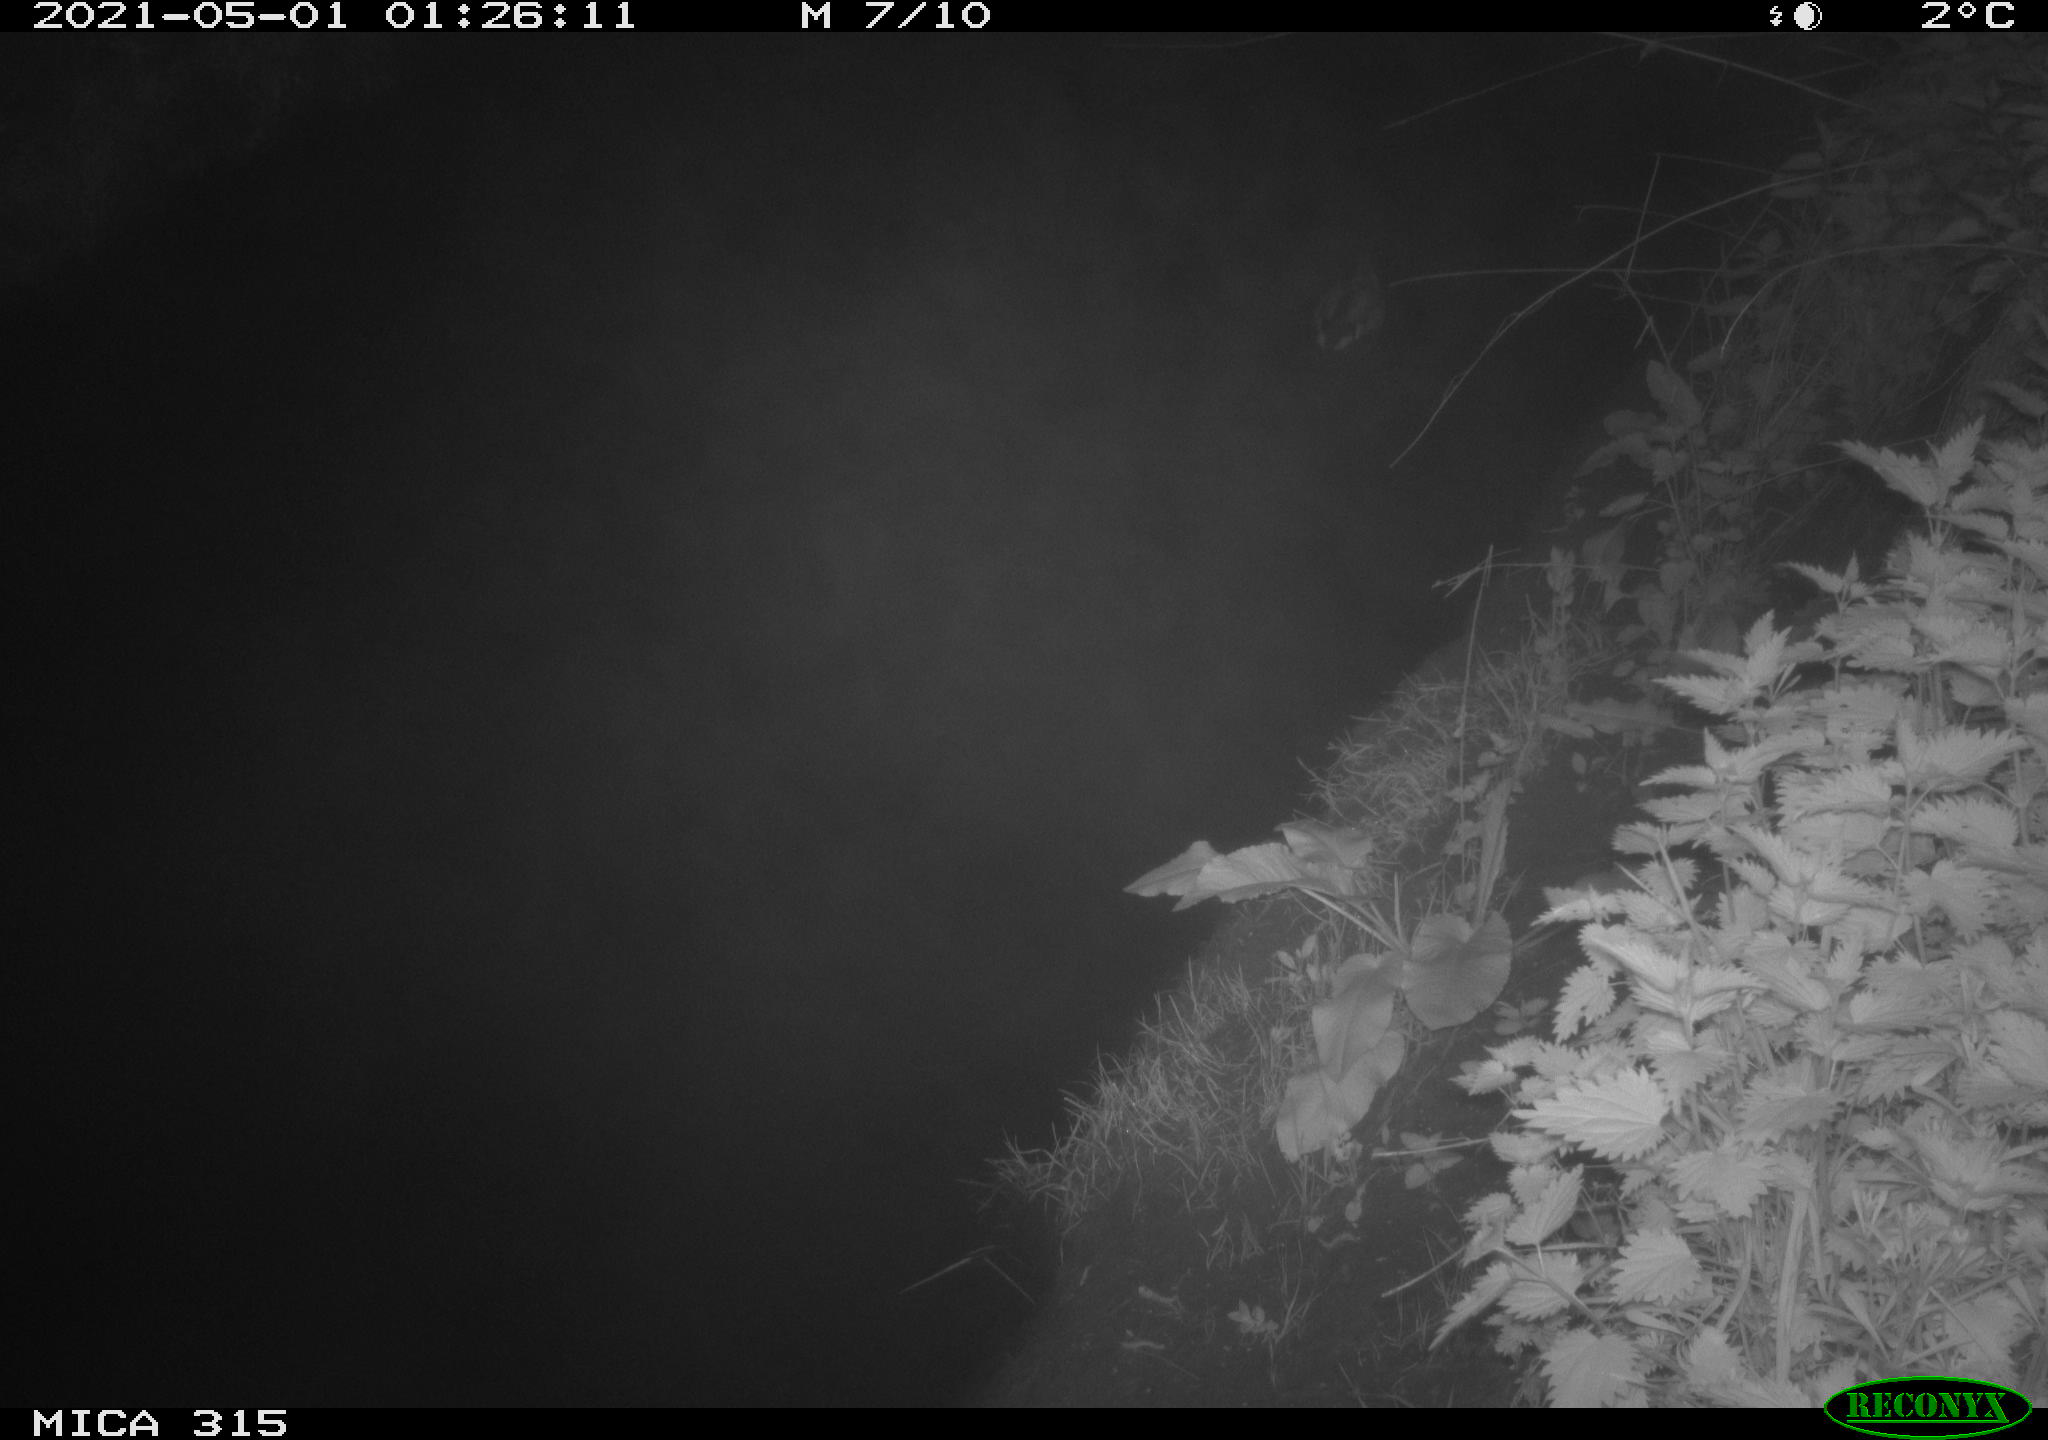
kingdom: Animalia
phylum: Chordata
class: Aves
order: Anseriformes
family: Anatidae
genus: Anas
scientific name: Anas
